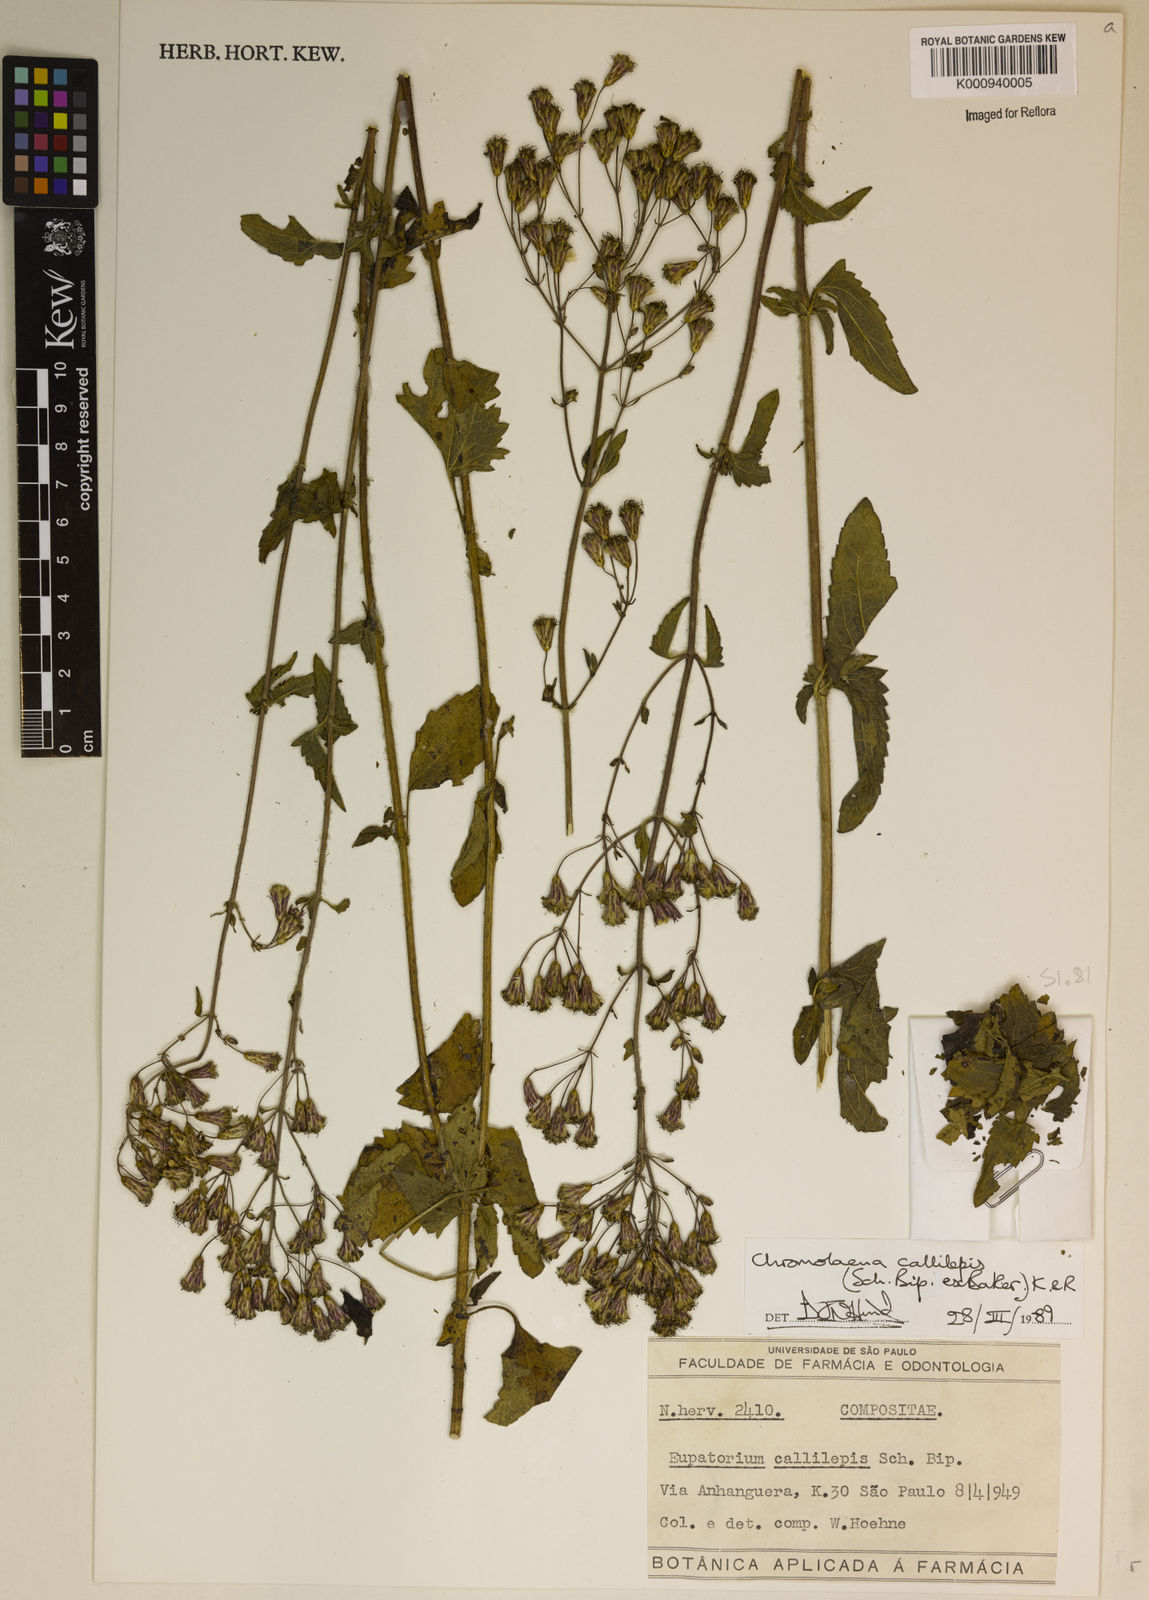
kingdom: Plantae
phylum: Tracheophyta
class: Magnoliopsida
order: Asterales
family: Asteraceae
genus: Chromolaena
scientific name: Chromolaena callilepis
